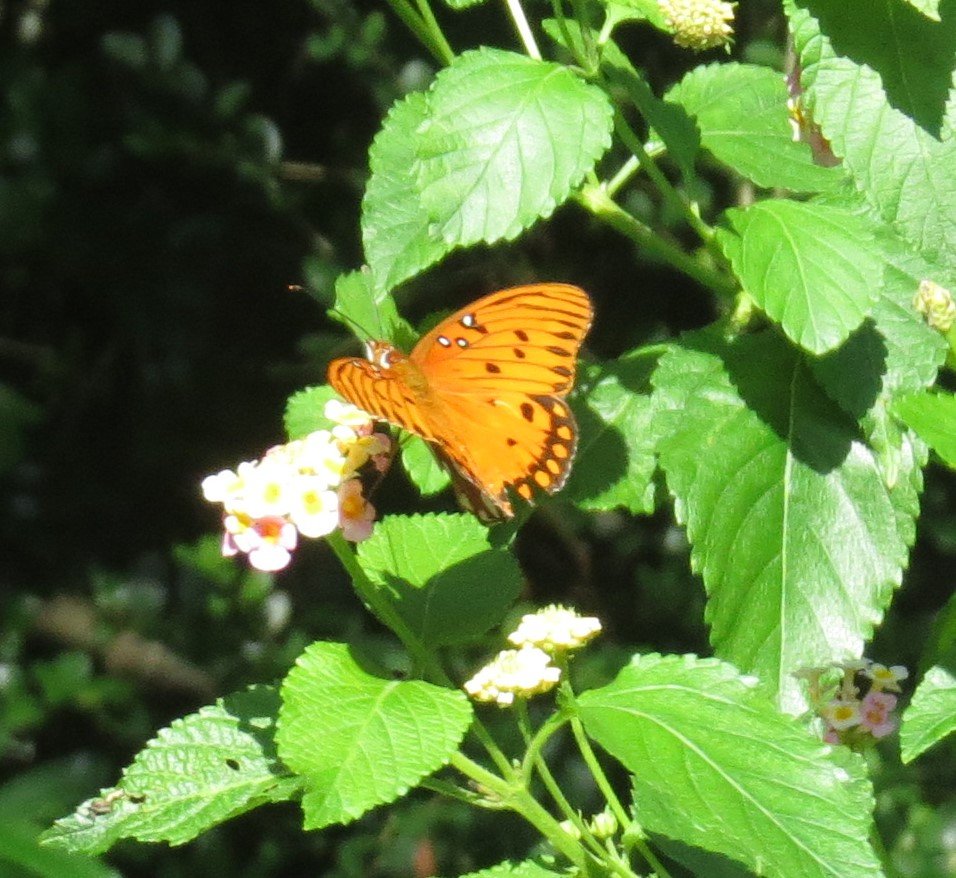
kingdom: Animalia
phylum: Arthropoda
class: Insecta
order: Lepidoptera
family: Nymphalidae
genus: Dione
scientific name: Dione vanillae
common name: Gulf Fritillary
